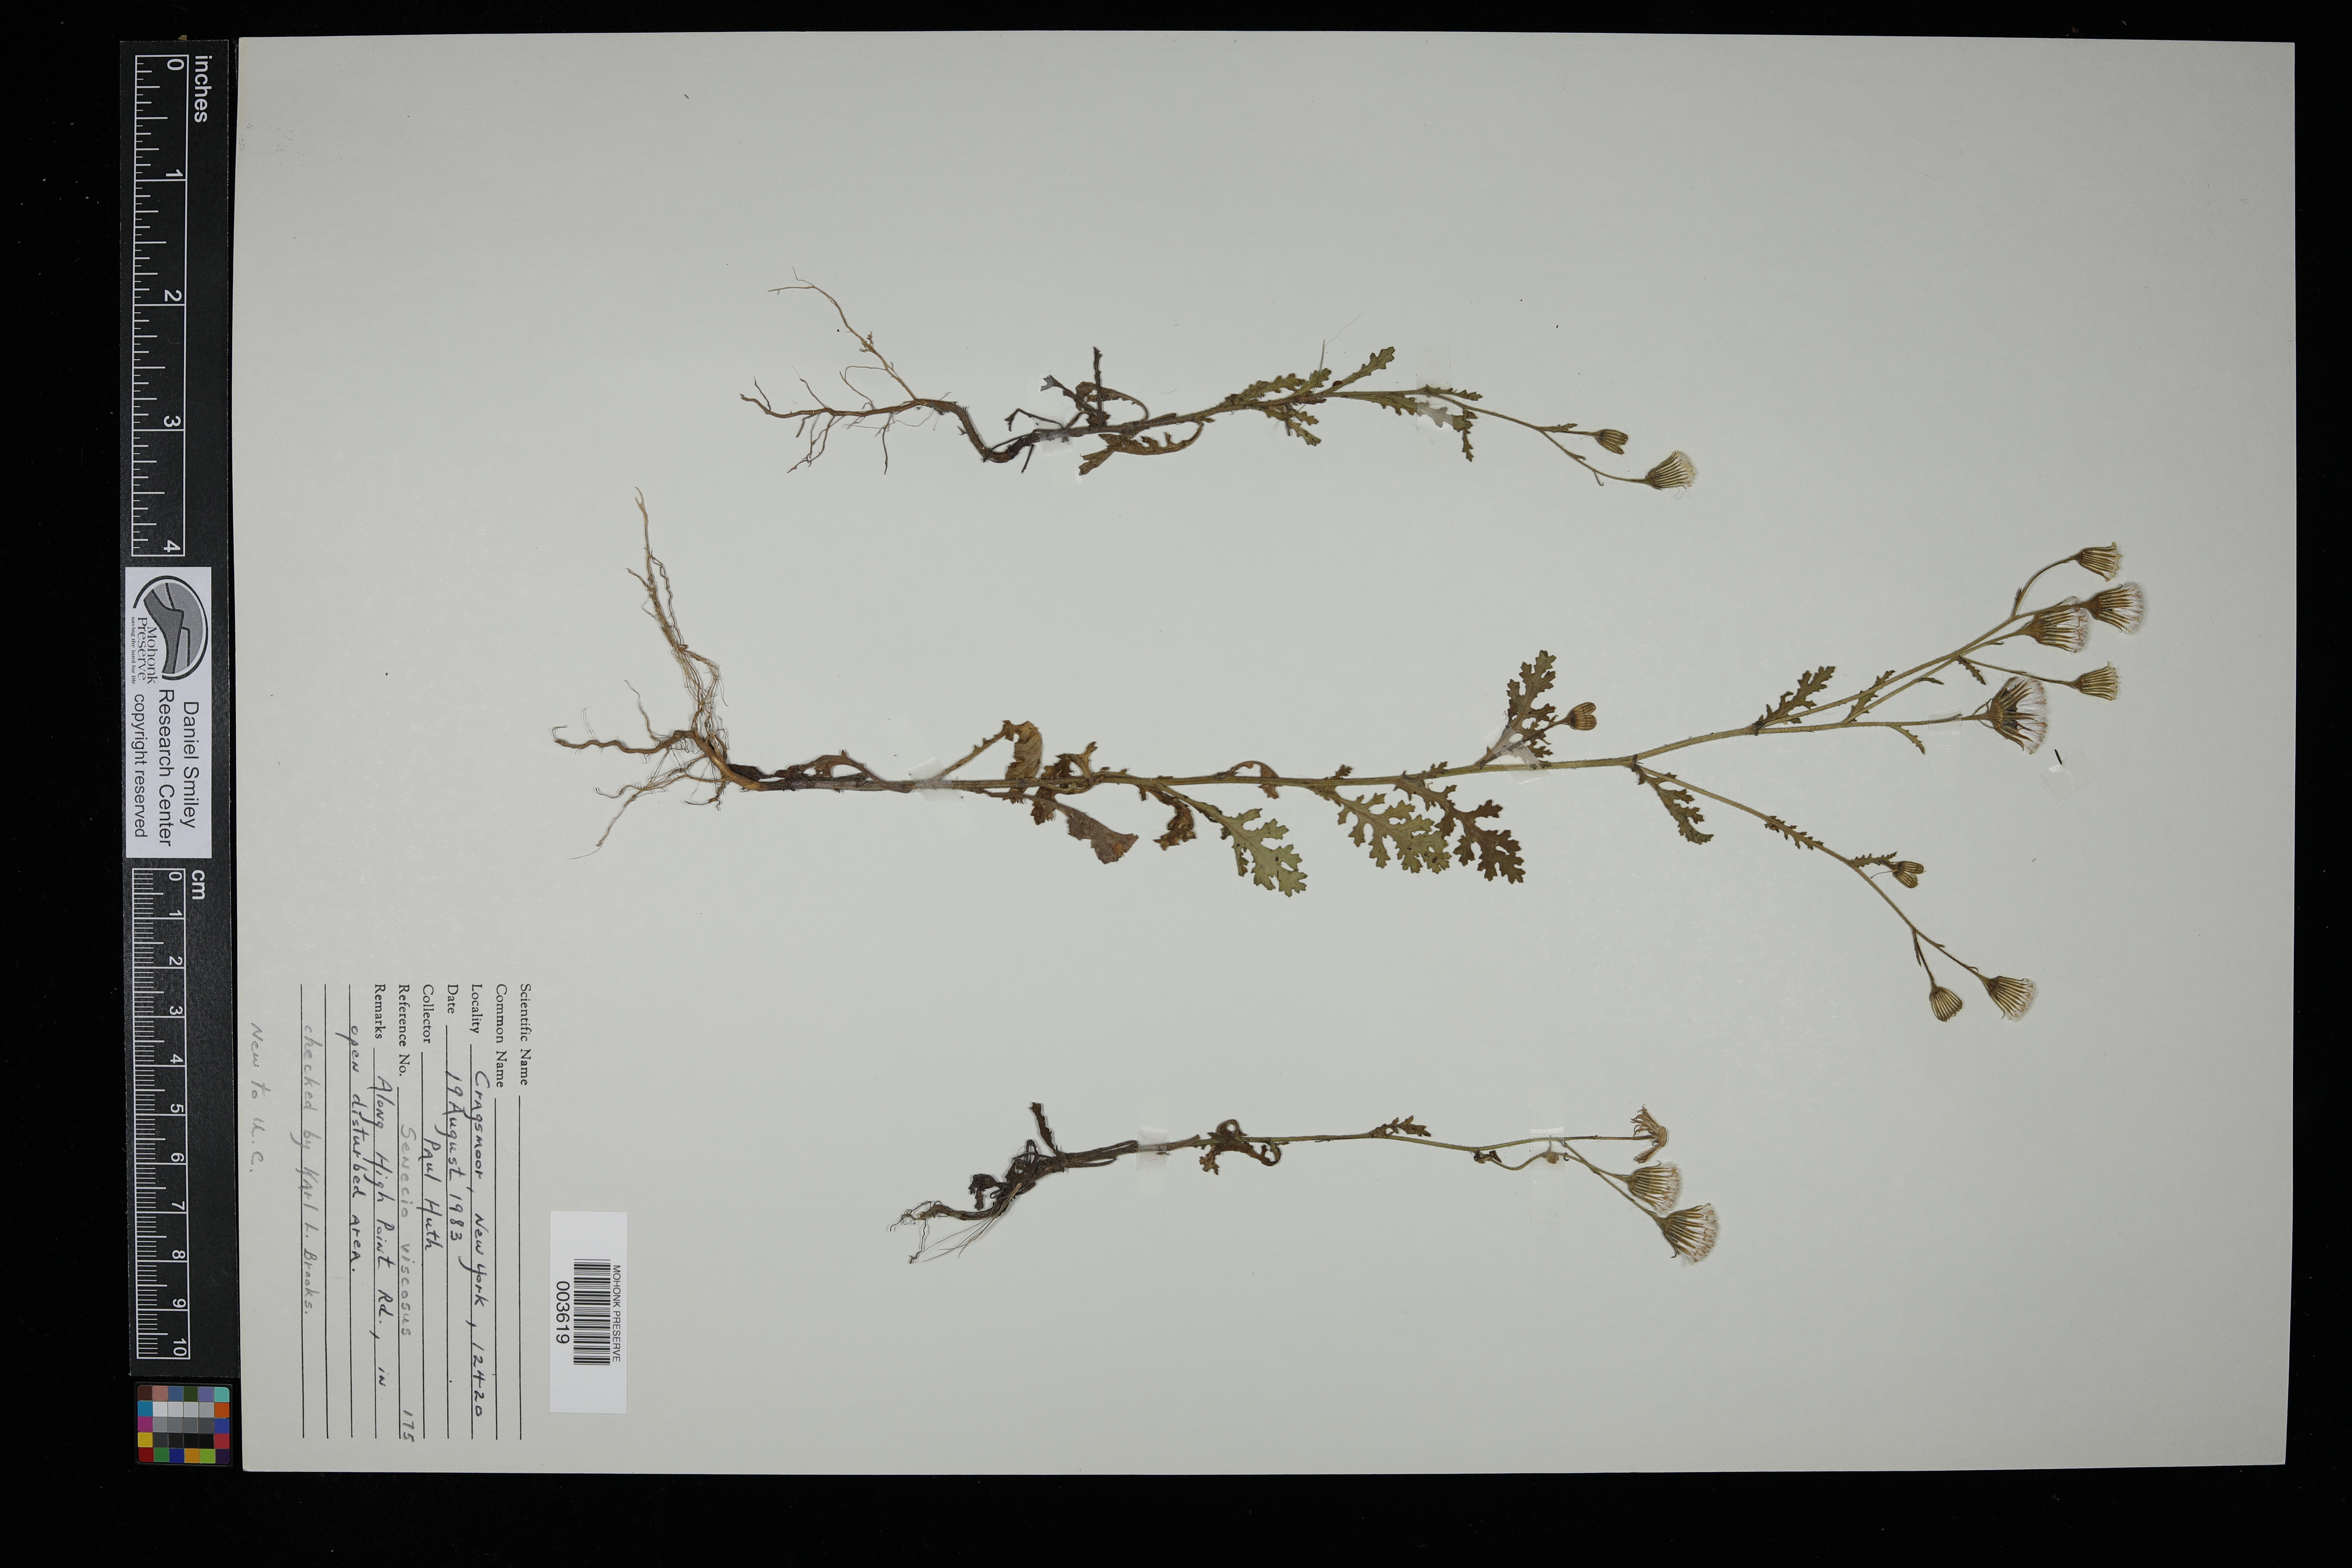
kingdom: Plantae
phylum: Tracheophyta
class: Magnoliopsida
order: Asterales
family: Asteraceae
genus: Senecio
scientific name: Senecio viscosus
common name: Sticky groundsel
